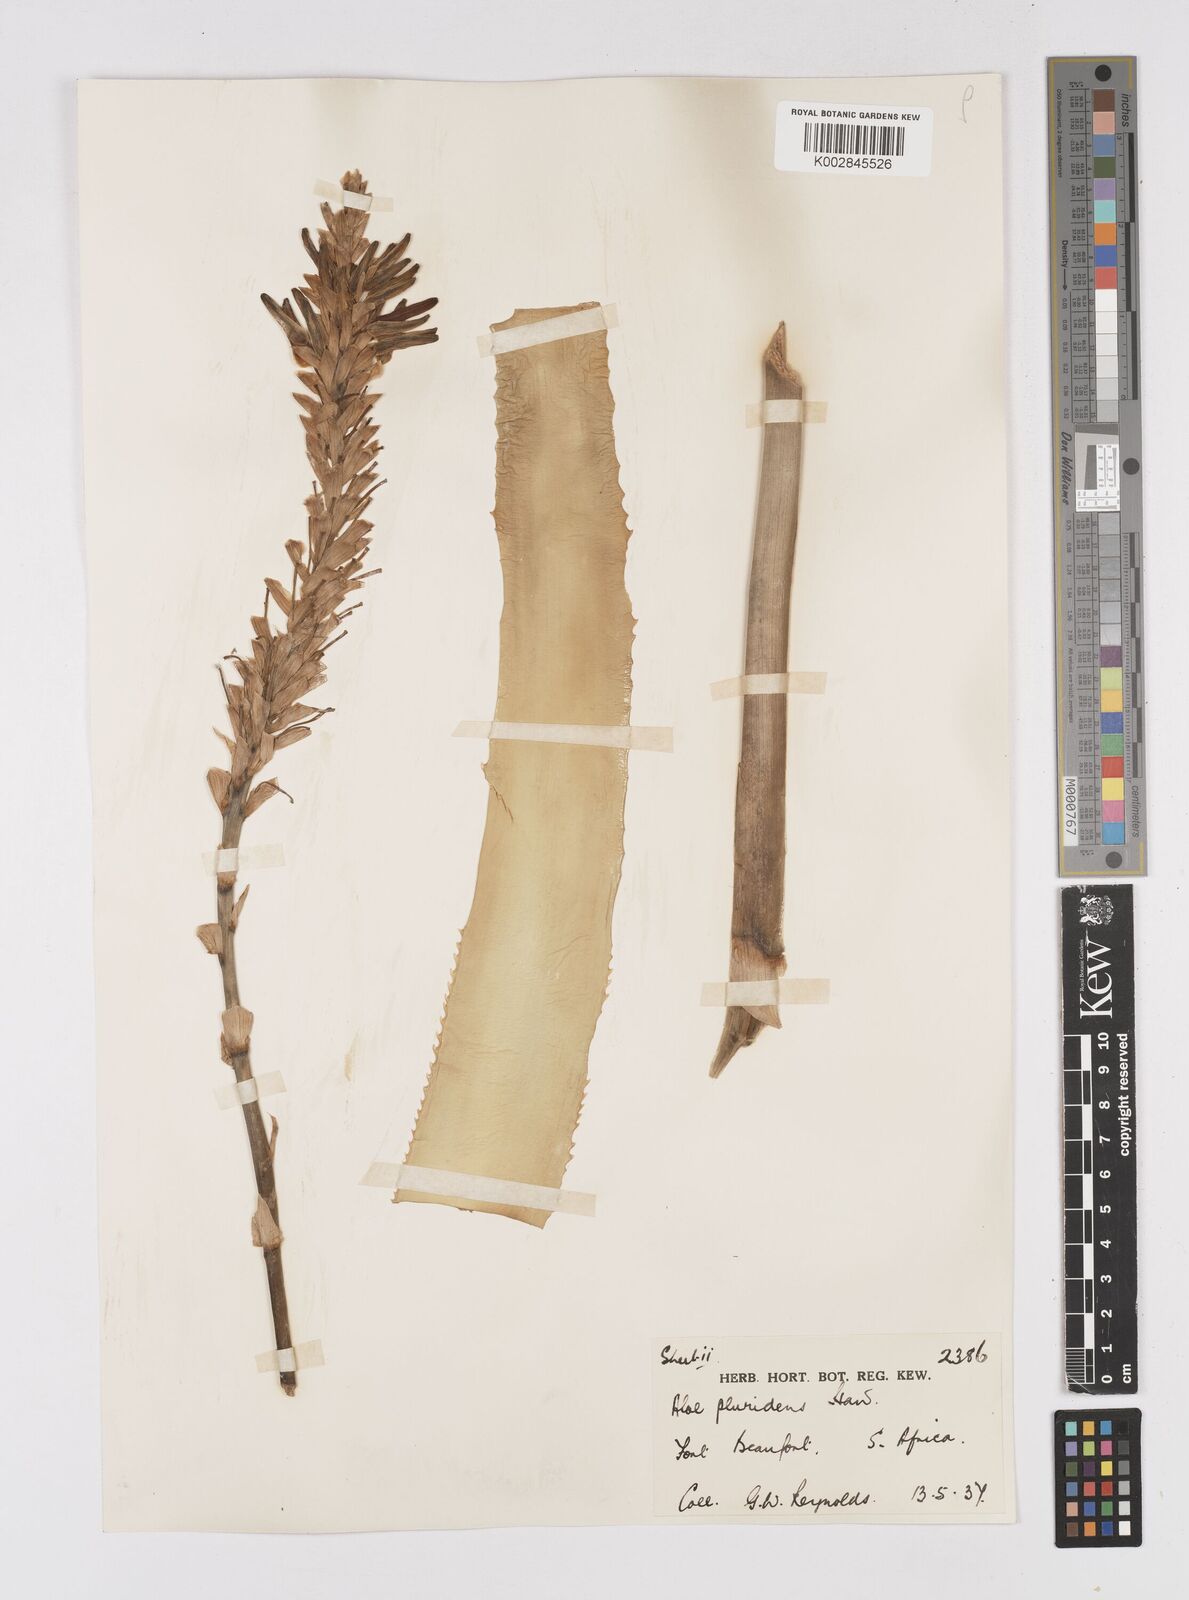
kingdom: Plantae
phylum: Tracheophyta
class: Liliopsida
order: Asparagales
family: Asphodelaceae
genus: Aloe
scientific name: Aloe pluridens
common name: French aloe
